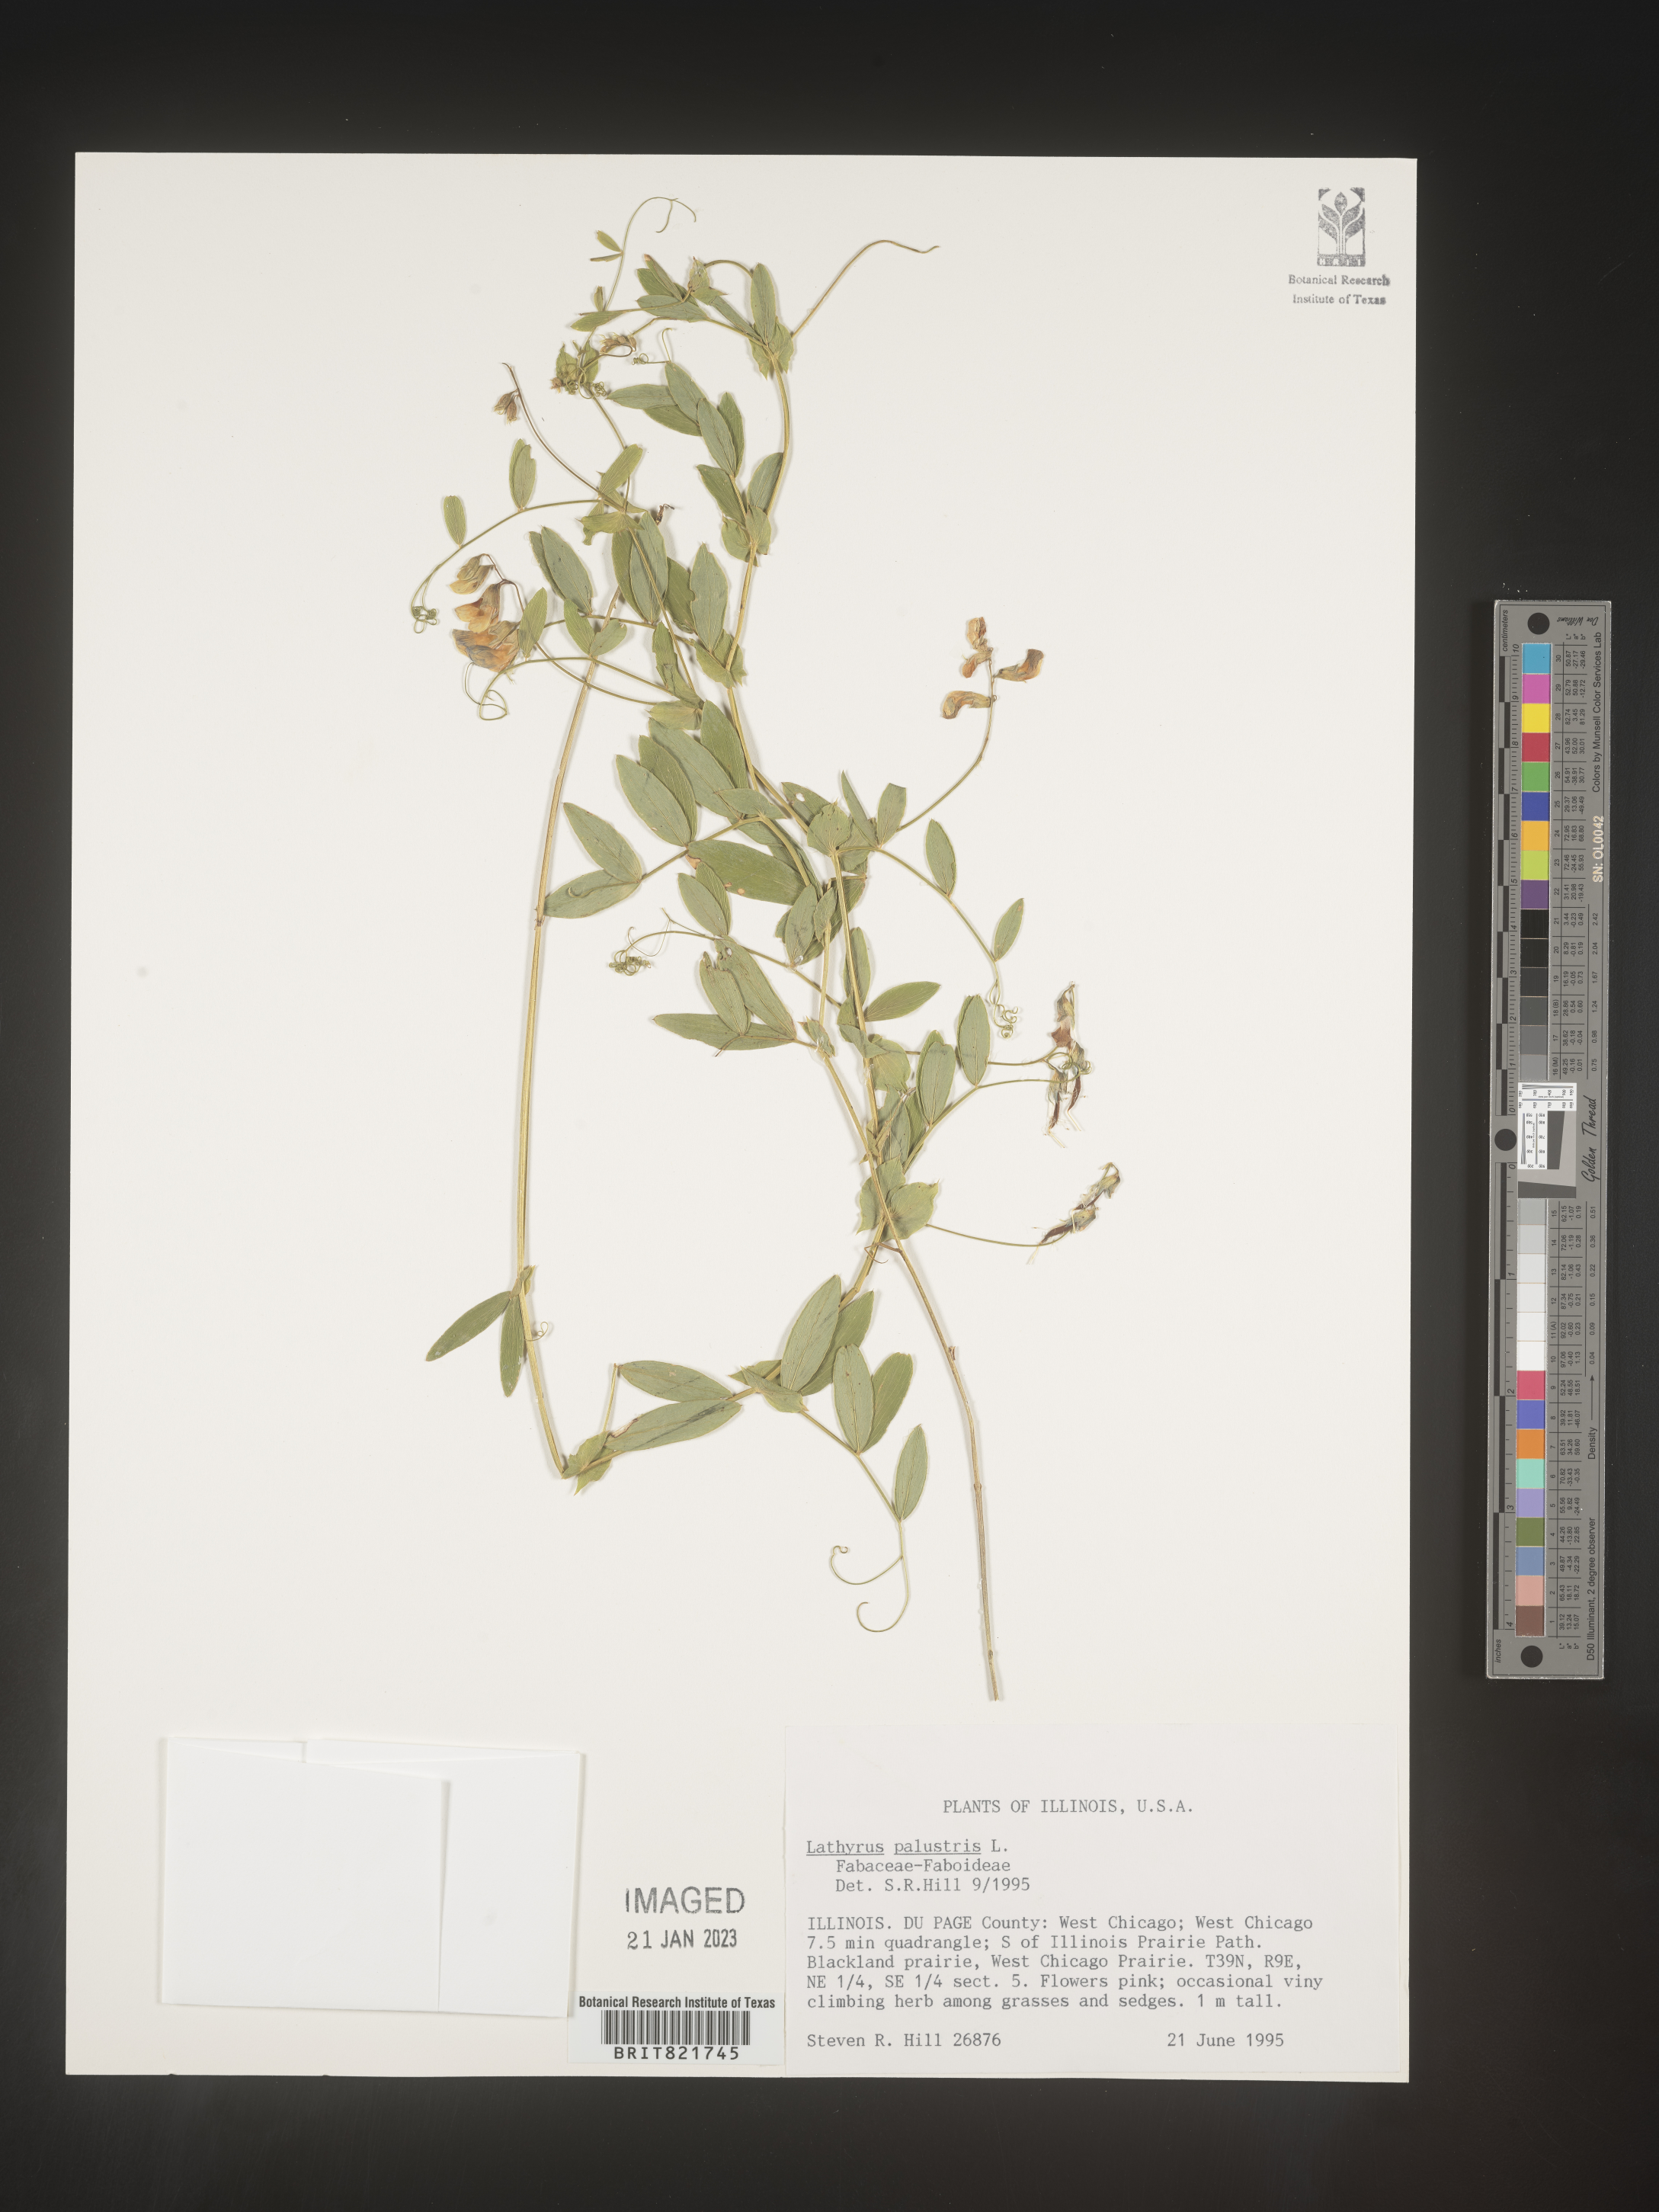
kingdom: Plantae
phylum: Tracheophyta
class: Magnoliopsida
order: Fabales
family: Fabaceae
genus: Lathyrus
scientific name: Lathyrus palustris
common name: Marsh pea
